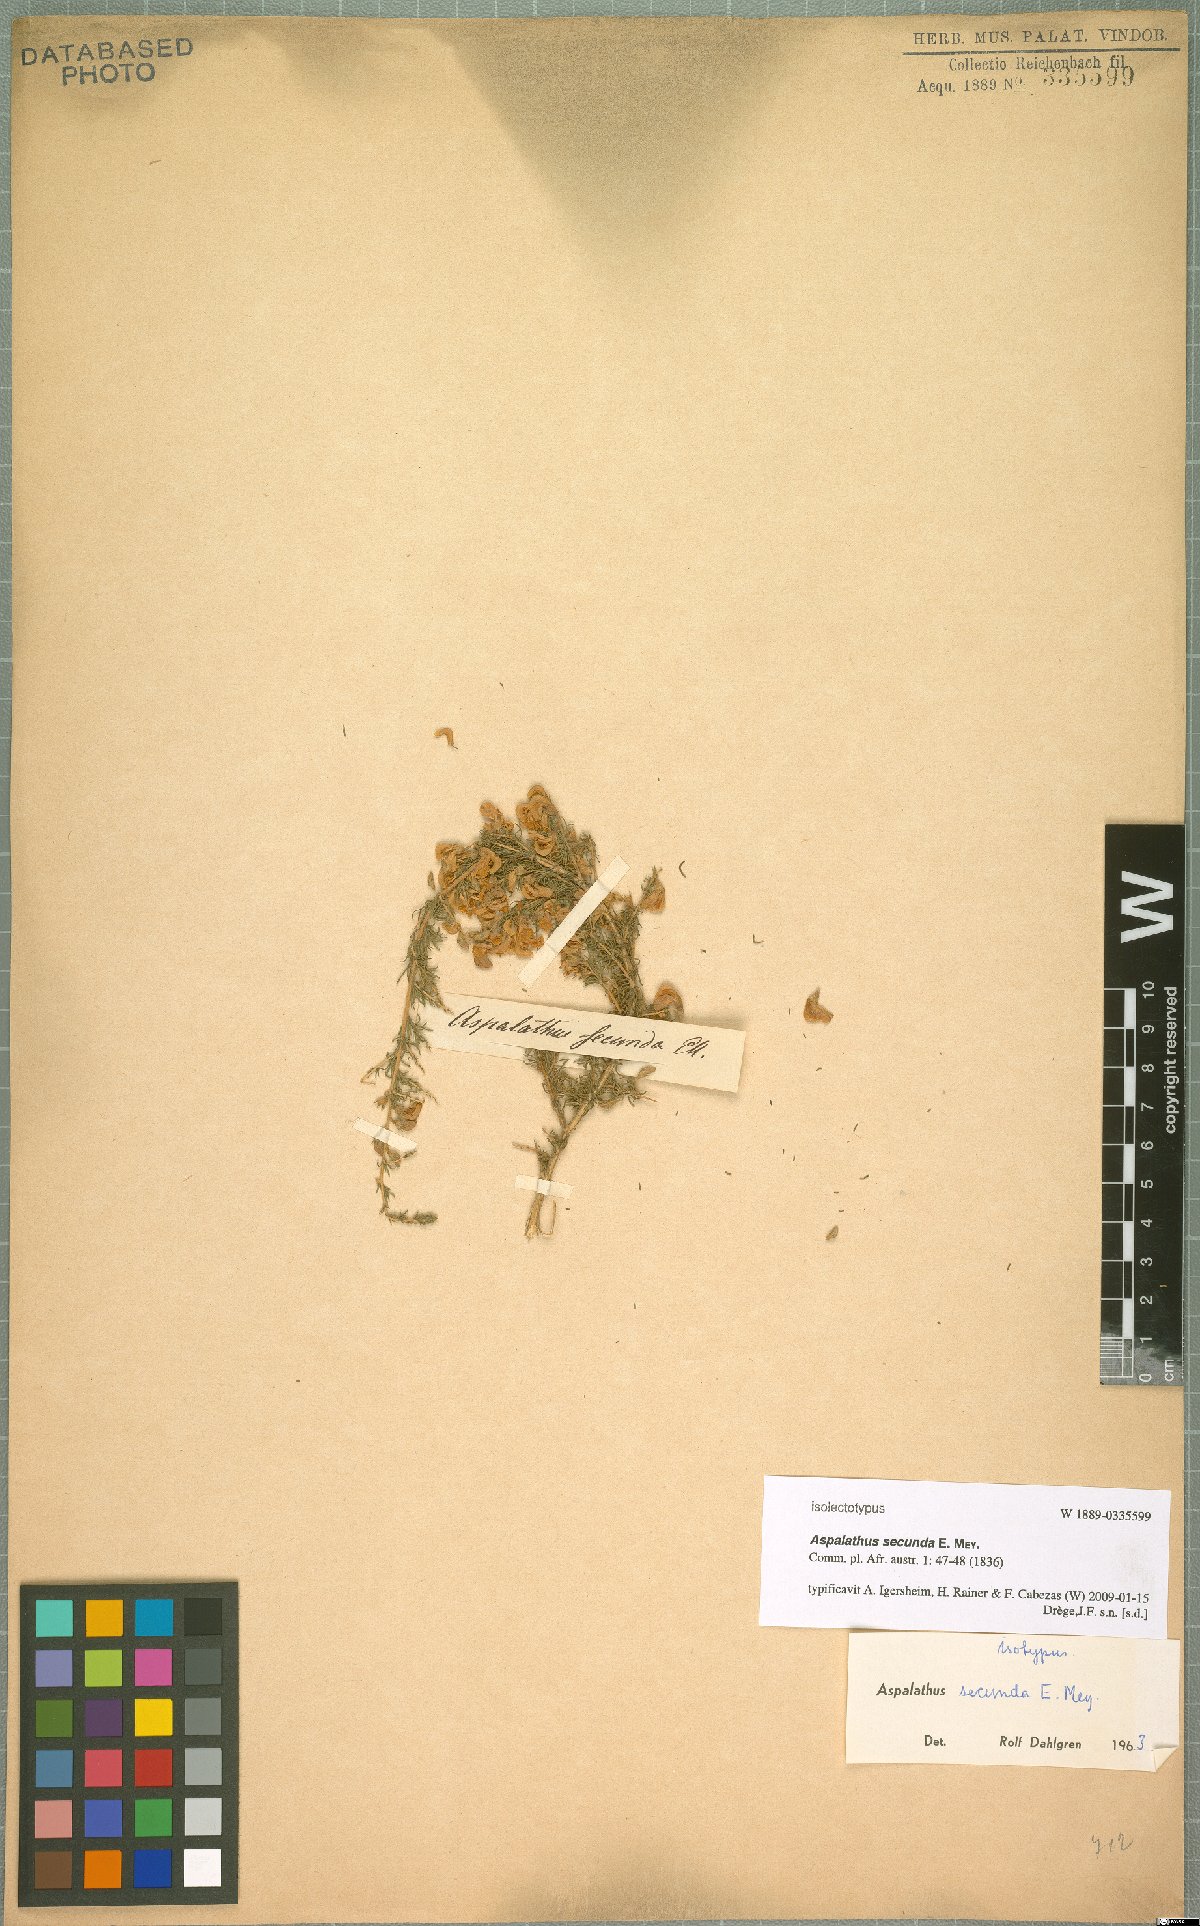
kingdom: Plantae
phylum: Tracheophyta
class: Magnoliopsida
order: Fabales
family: Fabaceae
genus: Aspalathus
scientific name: Aspalathus secunda
